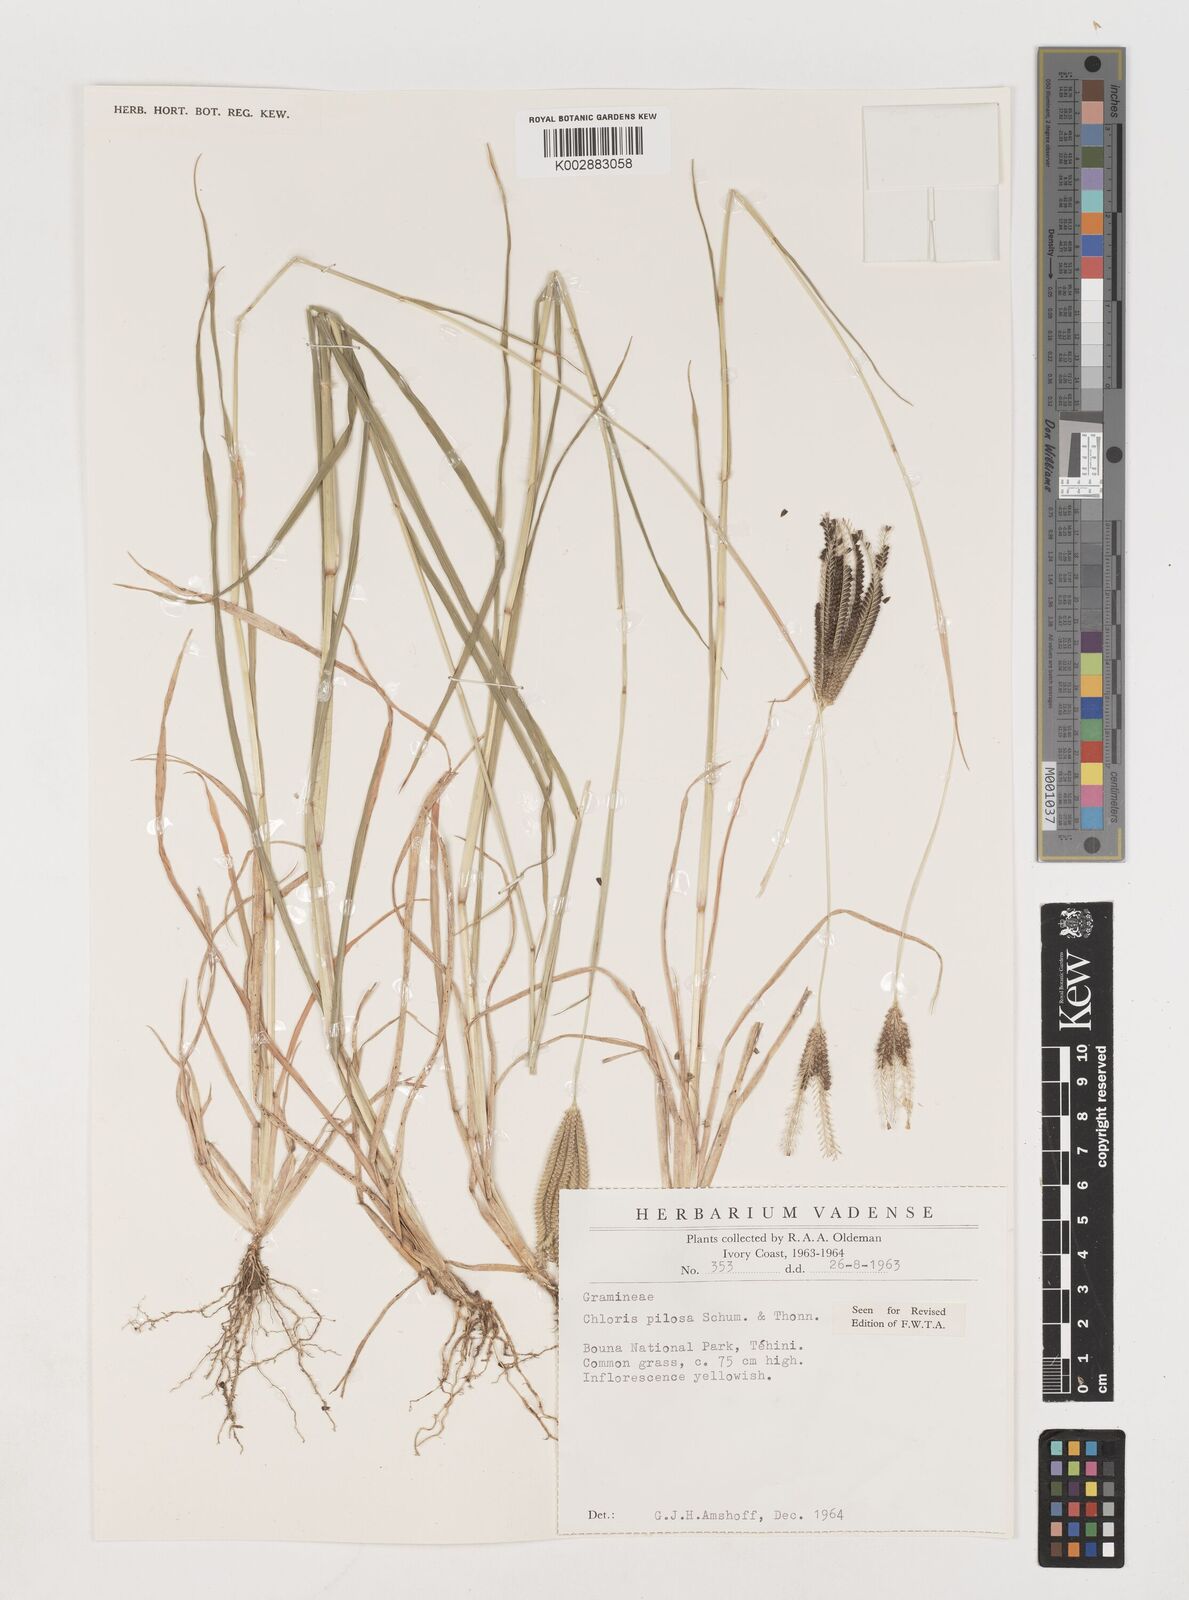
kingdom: Plantae
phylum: Tracheophyta
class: Liliopsida
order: Poales
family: Poaceae
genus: Chloris
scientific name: Chloris pilosa
